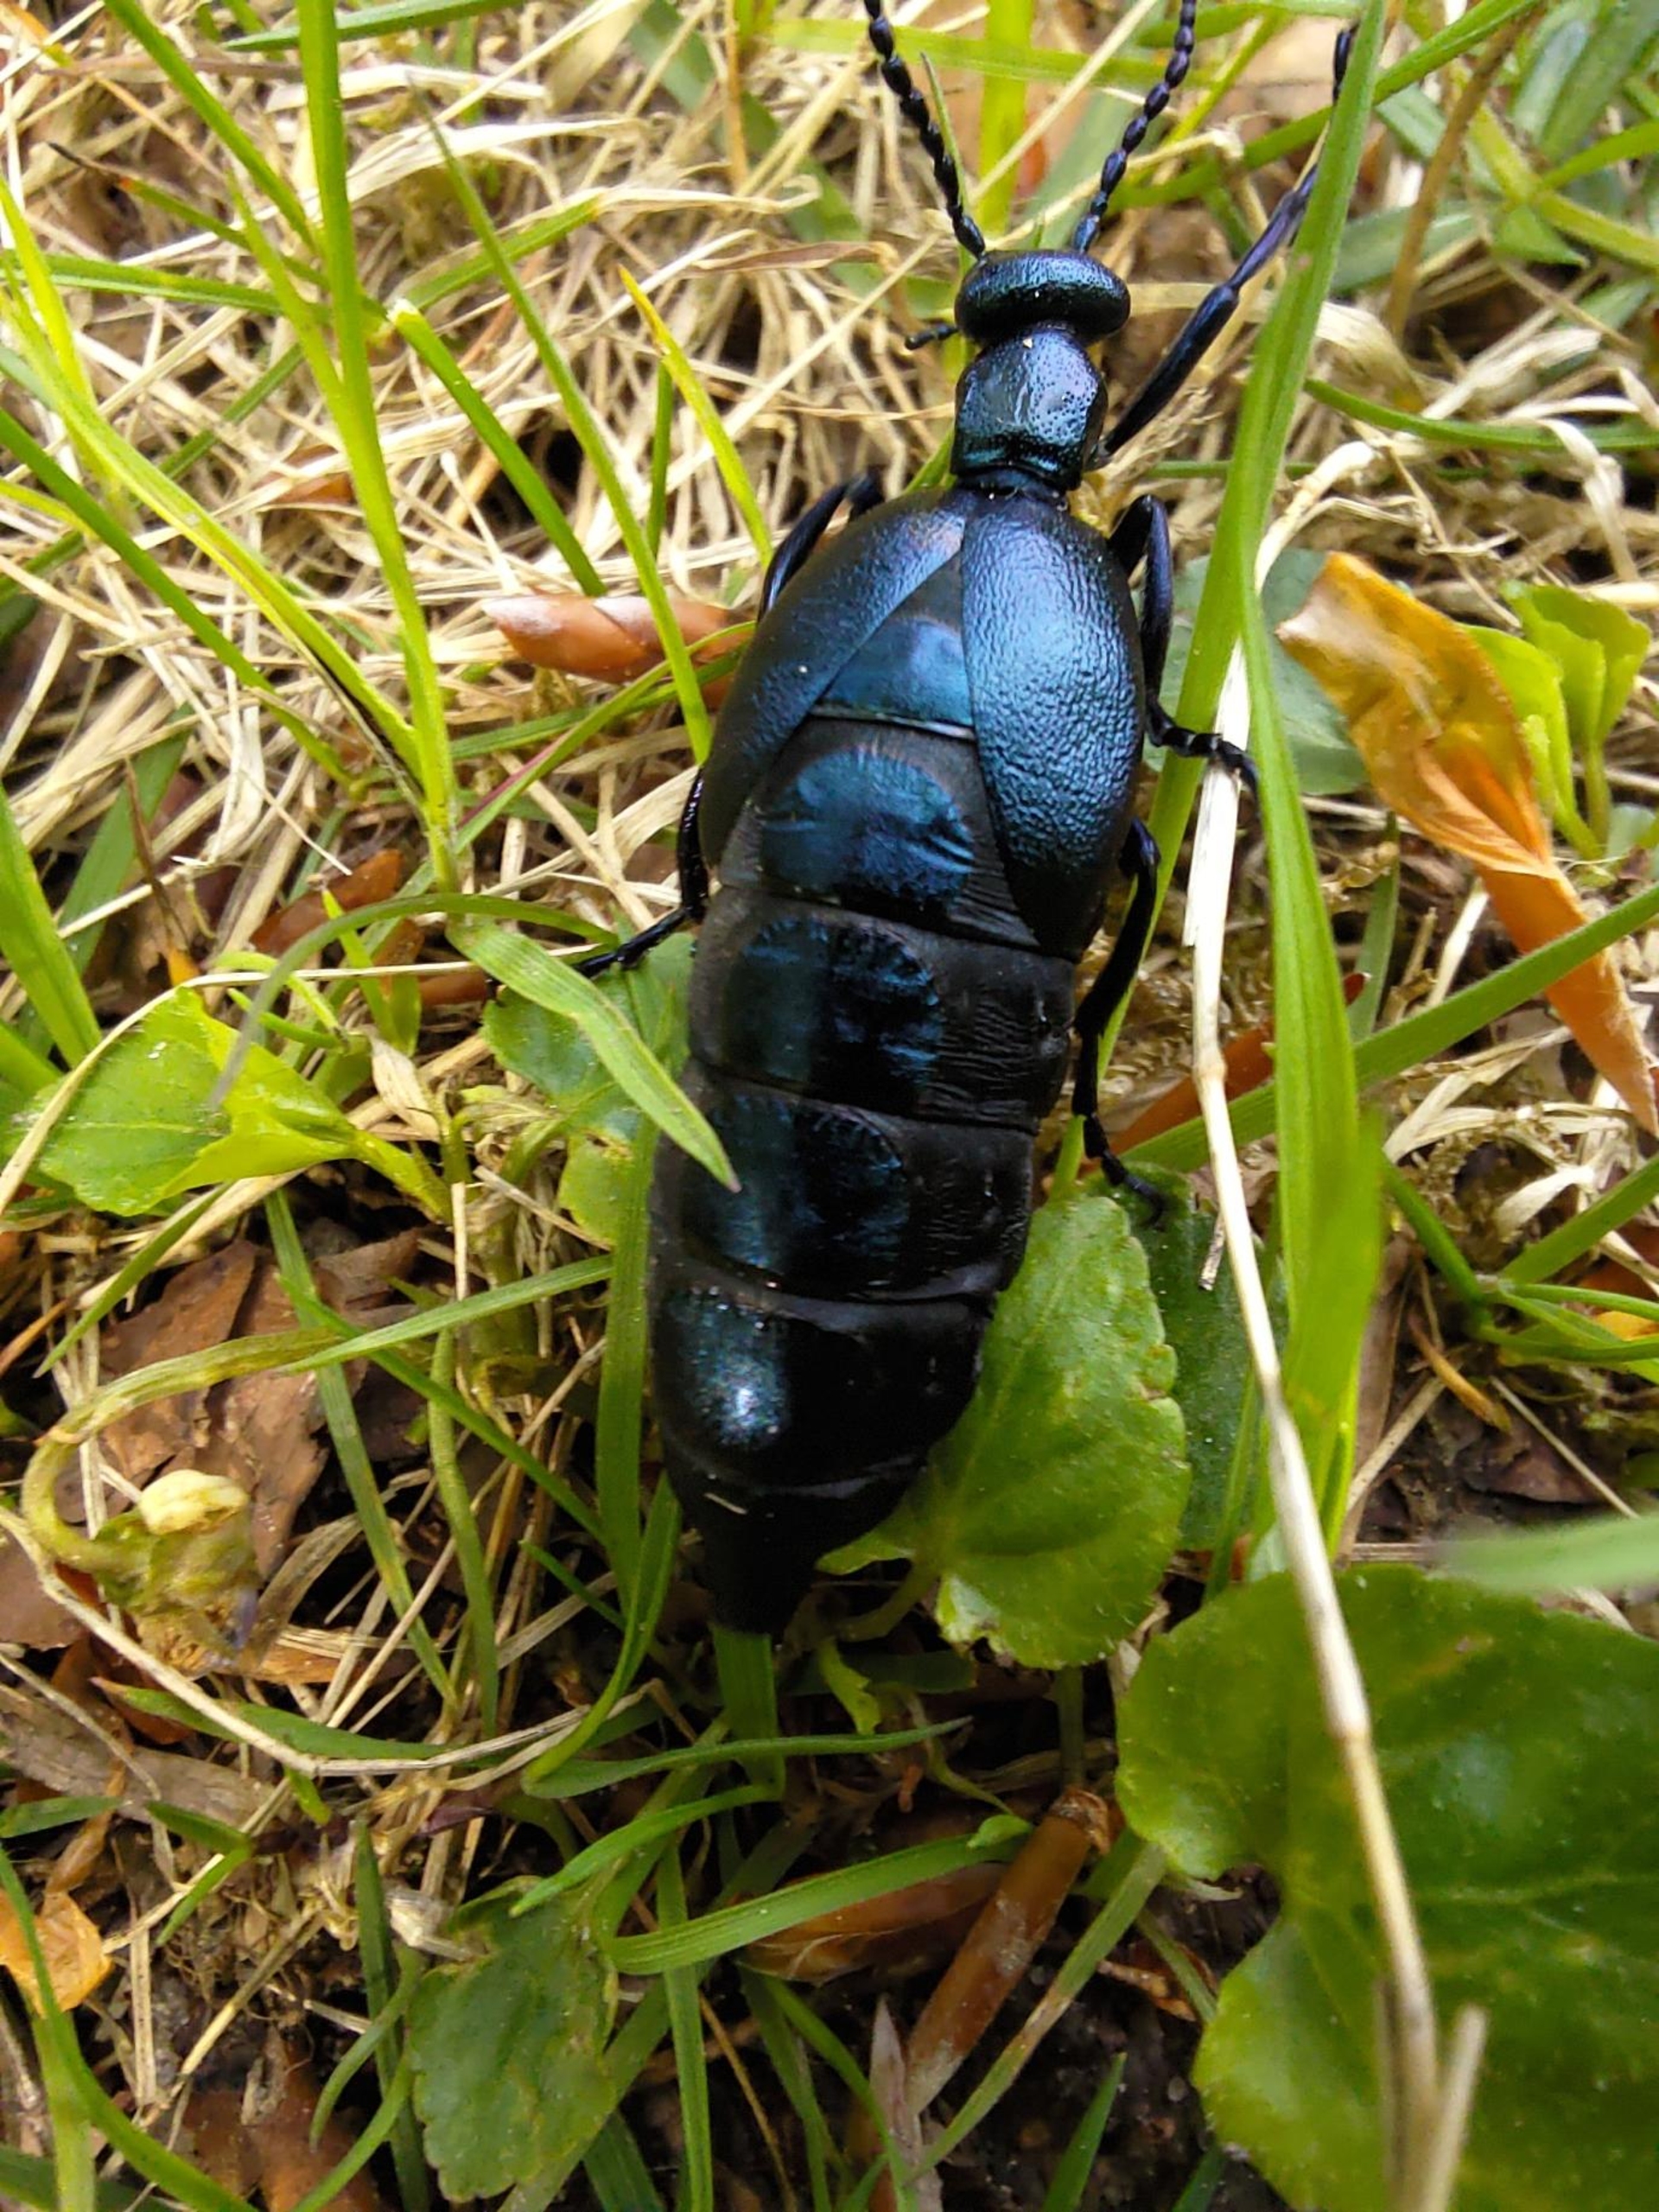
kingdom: Animalia
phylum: Arthropoda
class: Insecta
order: Coleoptera
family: Meloidae
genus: Meloe
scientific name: Meloe violaceus
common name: Blå oliebille
